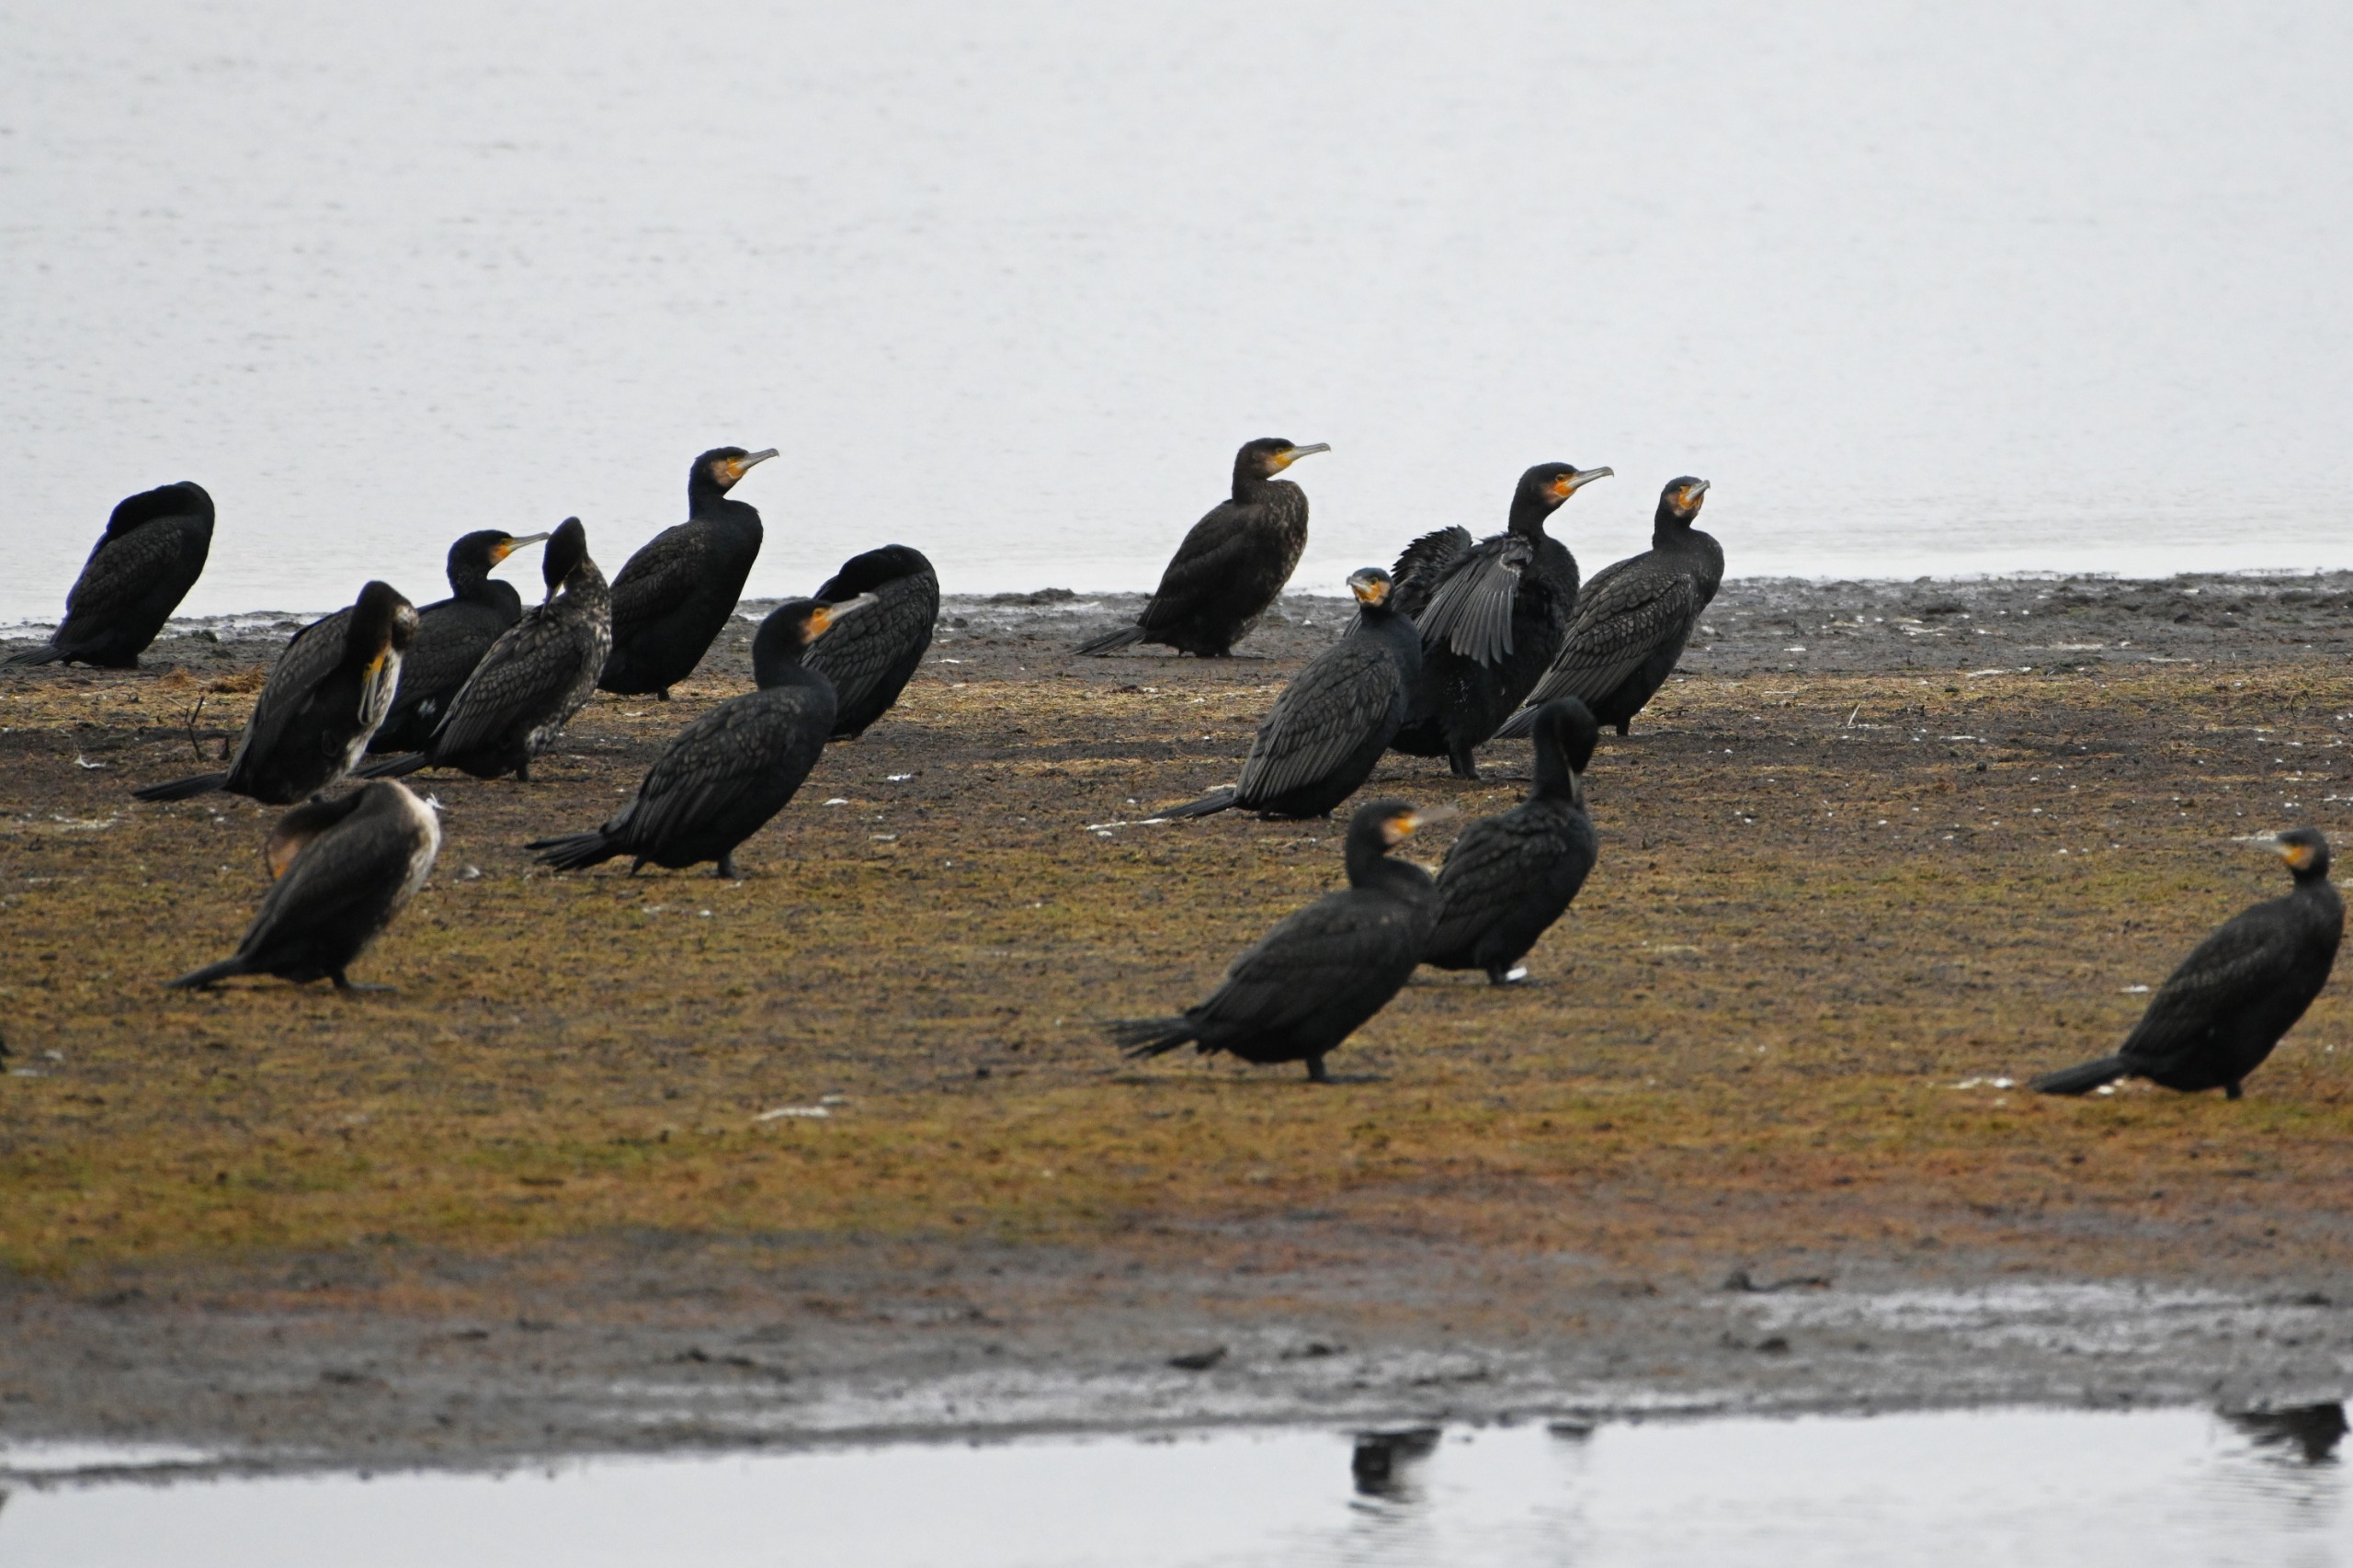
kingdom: Animalia
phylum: Chordata
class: Aves
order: Suliformes
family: Phalacrocoracidae
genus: Phalacrocorax
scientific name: Phalacrocorax carbo
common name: Skarv
